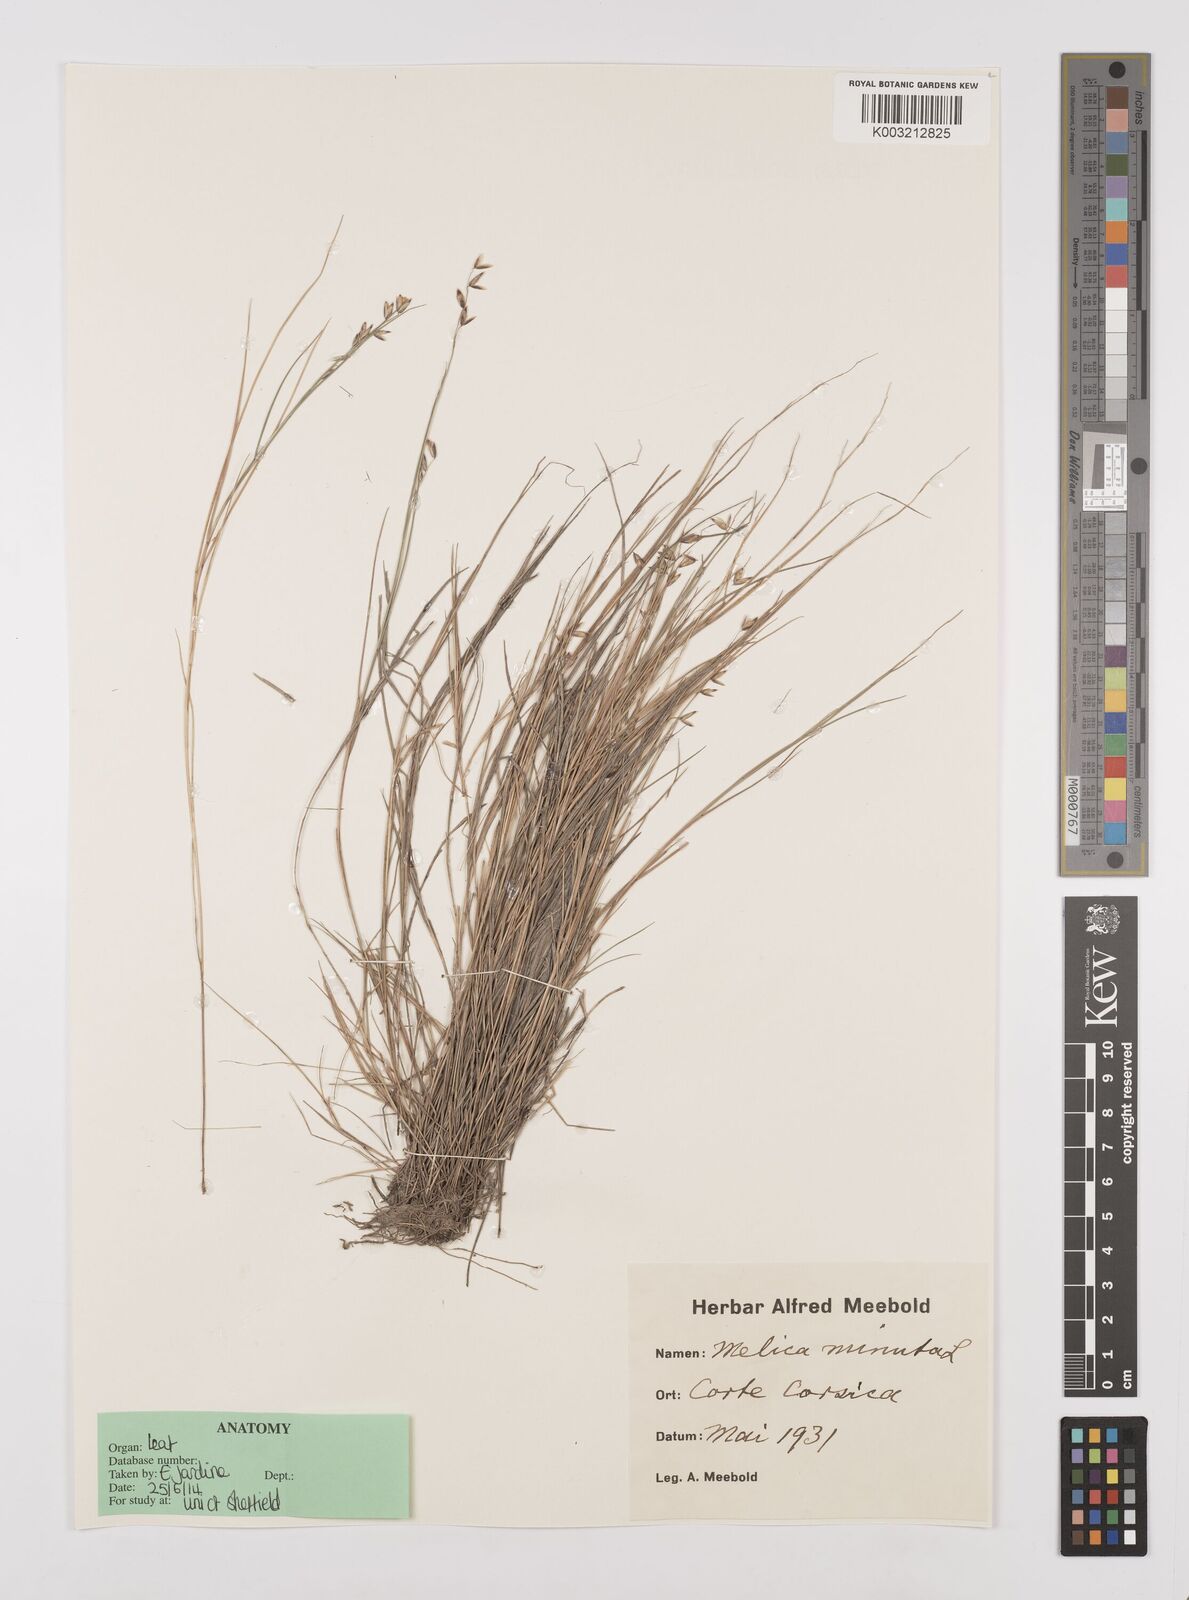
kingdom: Plantae
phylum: Tracheophyta
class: Liliopsida
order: Poales
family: Poaceae
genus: Melica
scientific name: Melica minuta
